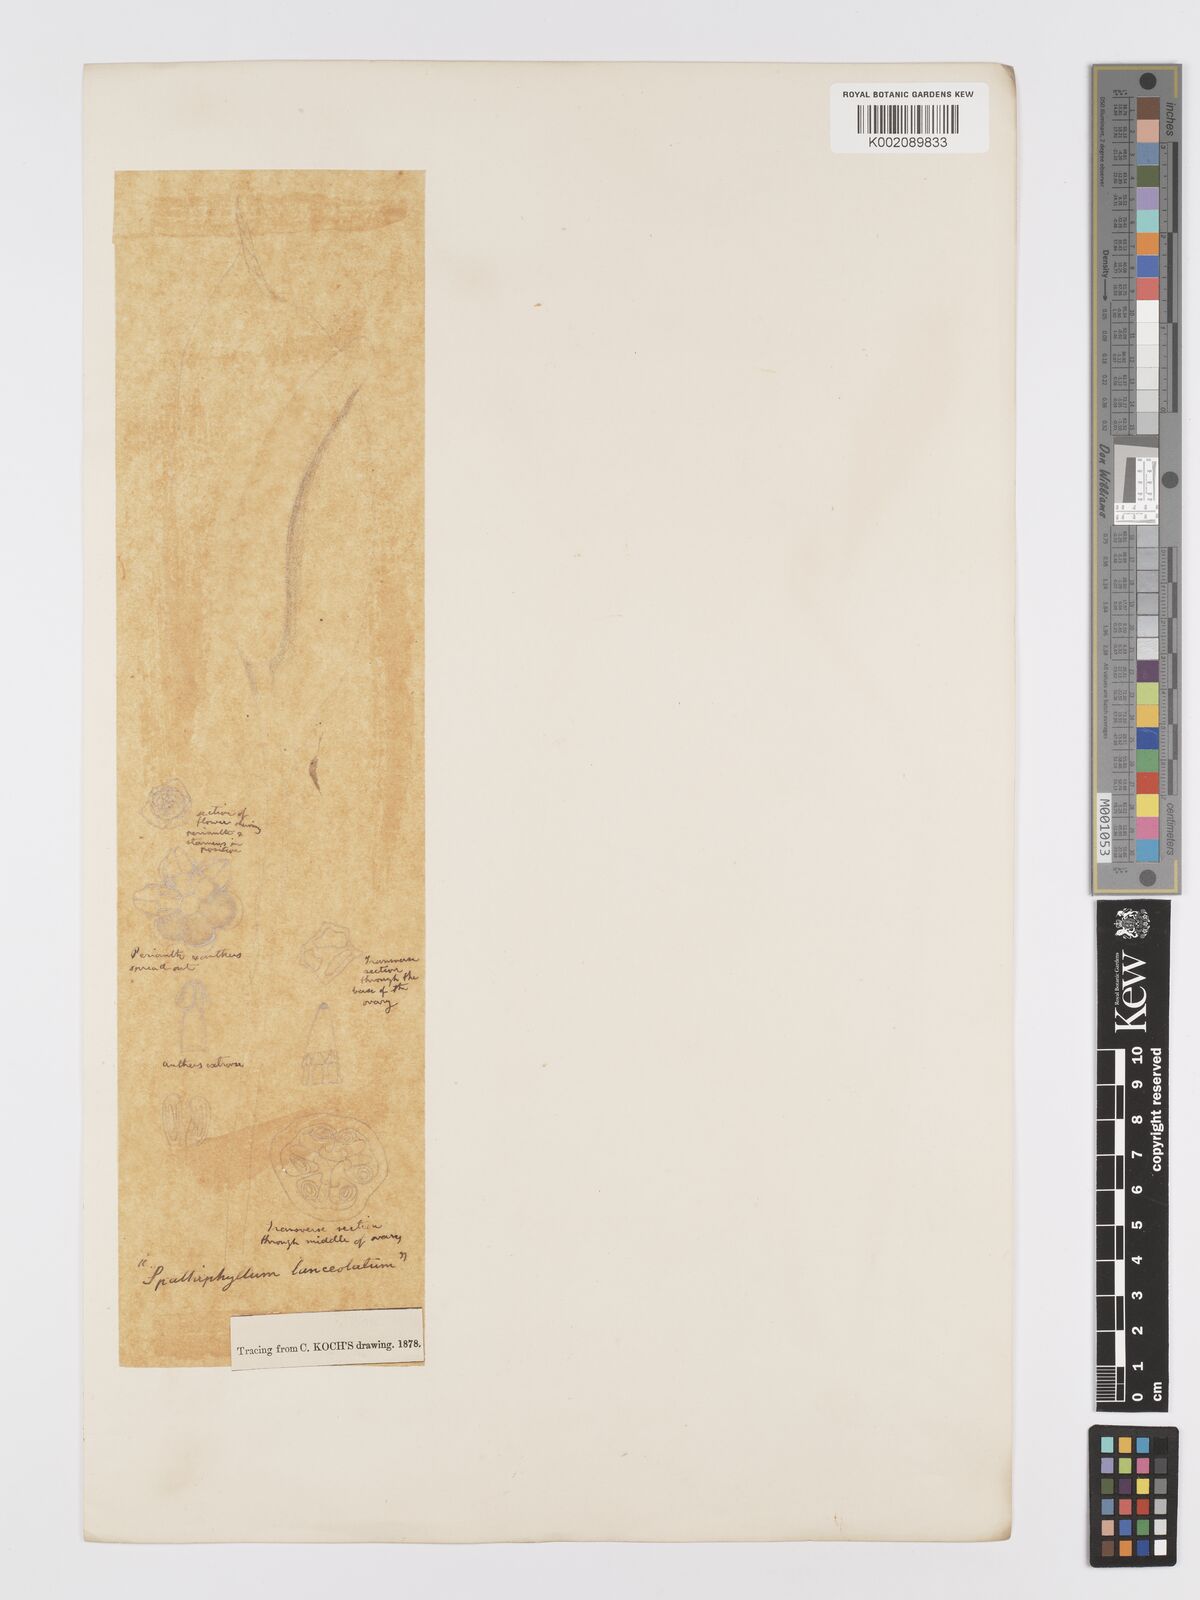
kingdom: Plantae
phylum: Tracheophyta
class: Liliopsida
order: Alismatales
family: Araceae
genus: Spathiphyllum
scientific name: Spathiphyllum cochlearispathum
